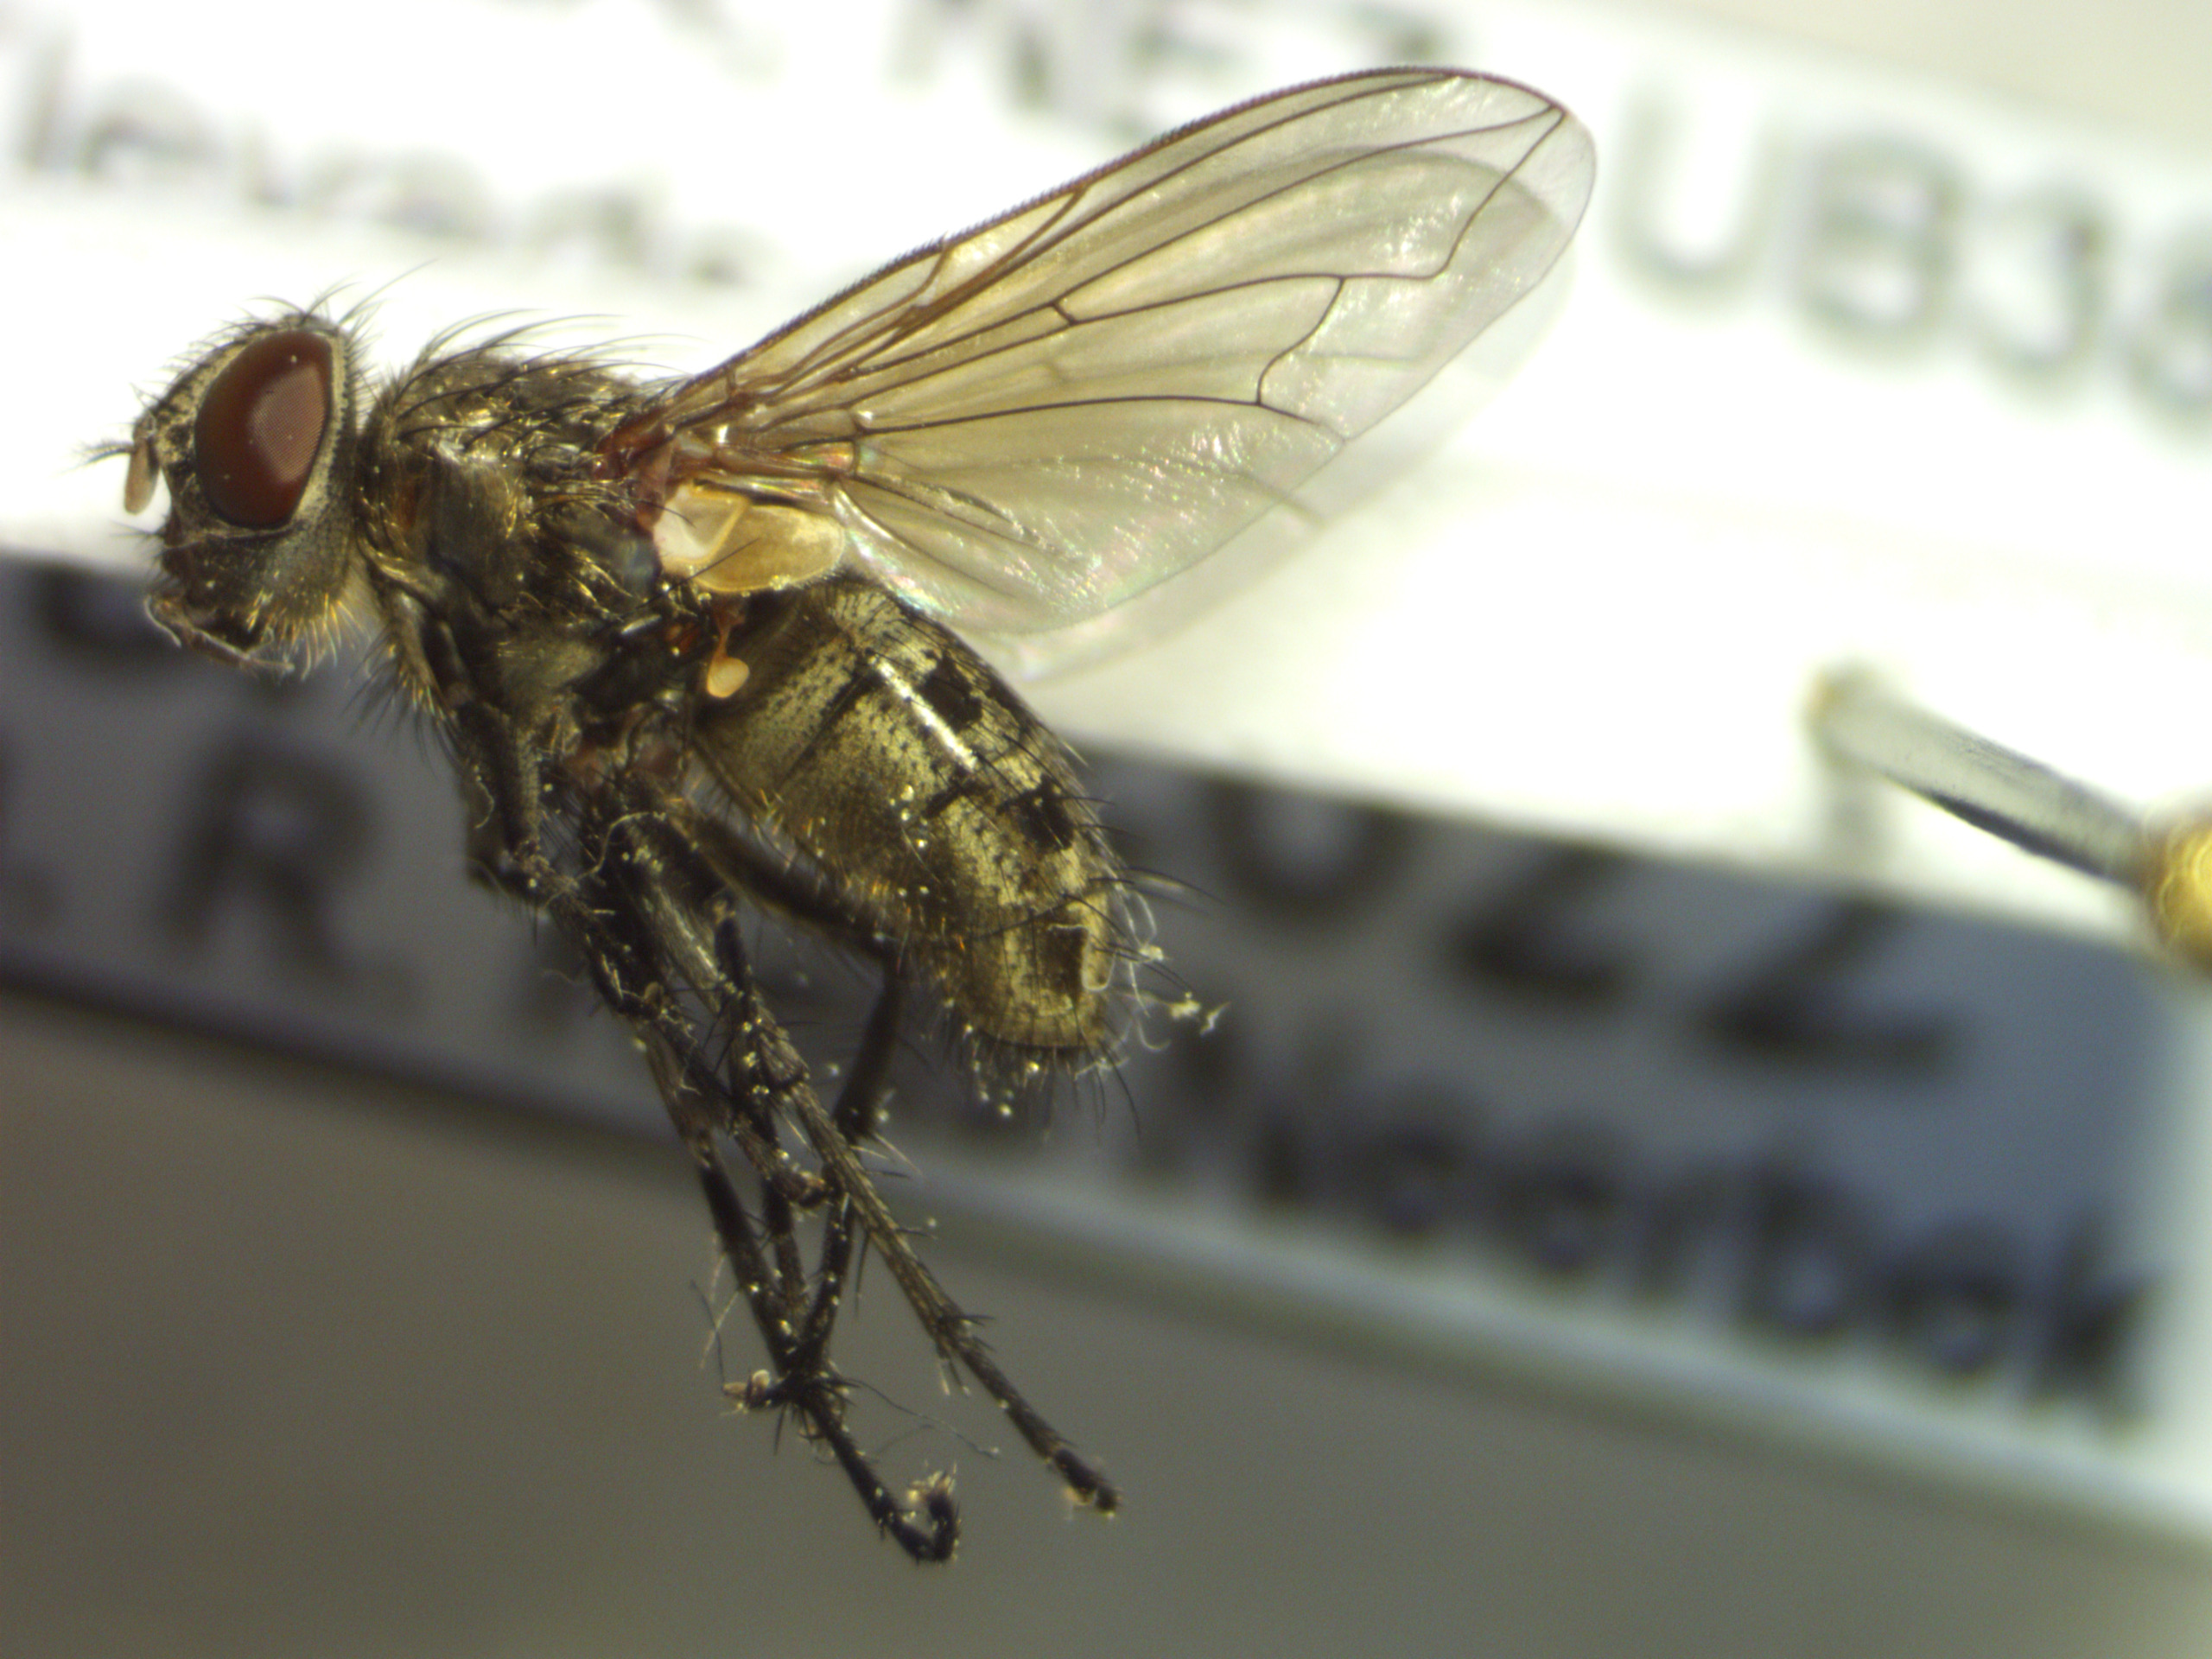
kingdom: Animalia
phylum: Arthropoda
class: Insecta
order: Diptera
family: Polleniidae
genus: Pollenia
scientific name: Pollenia rudis
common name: Almindelig klyngeflue
